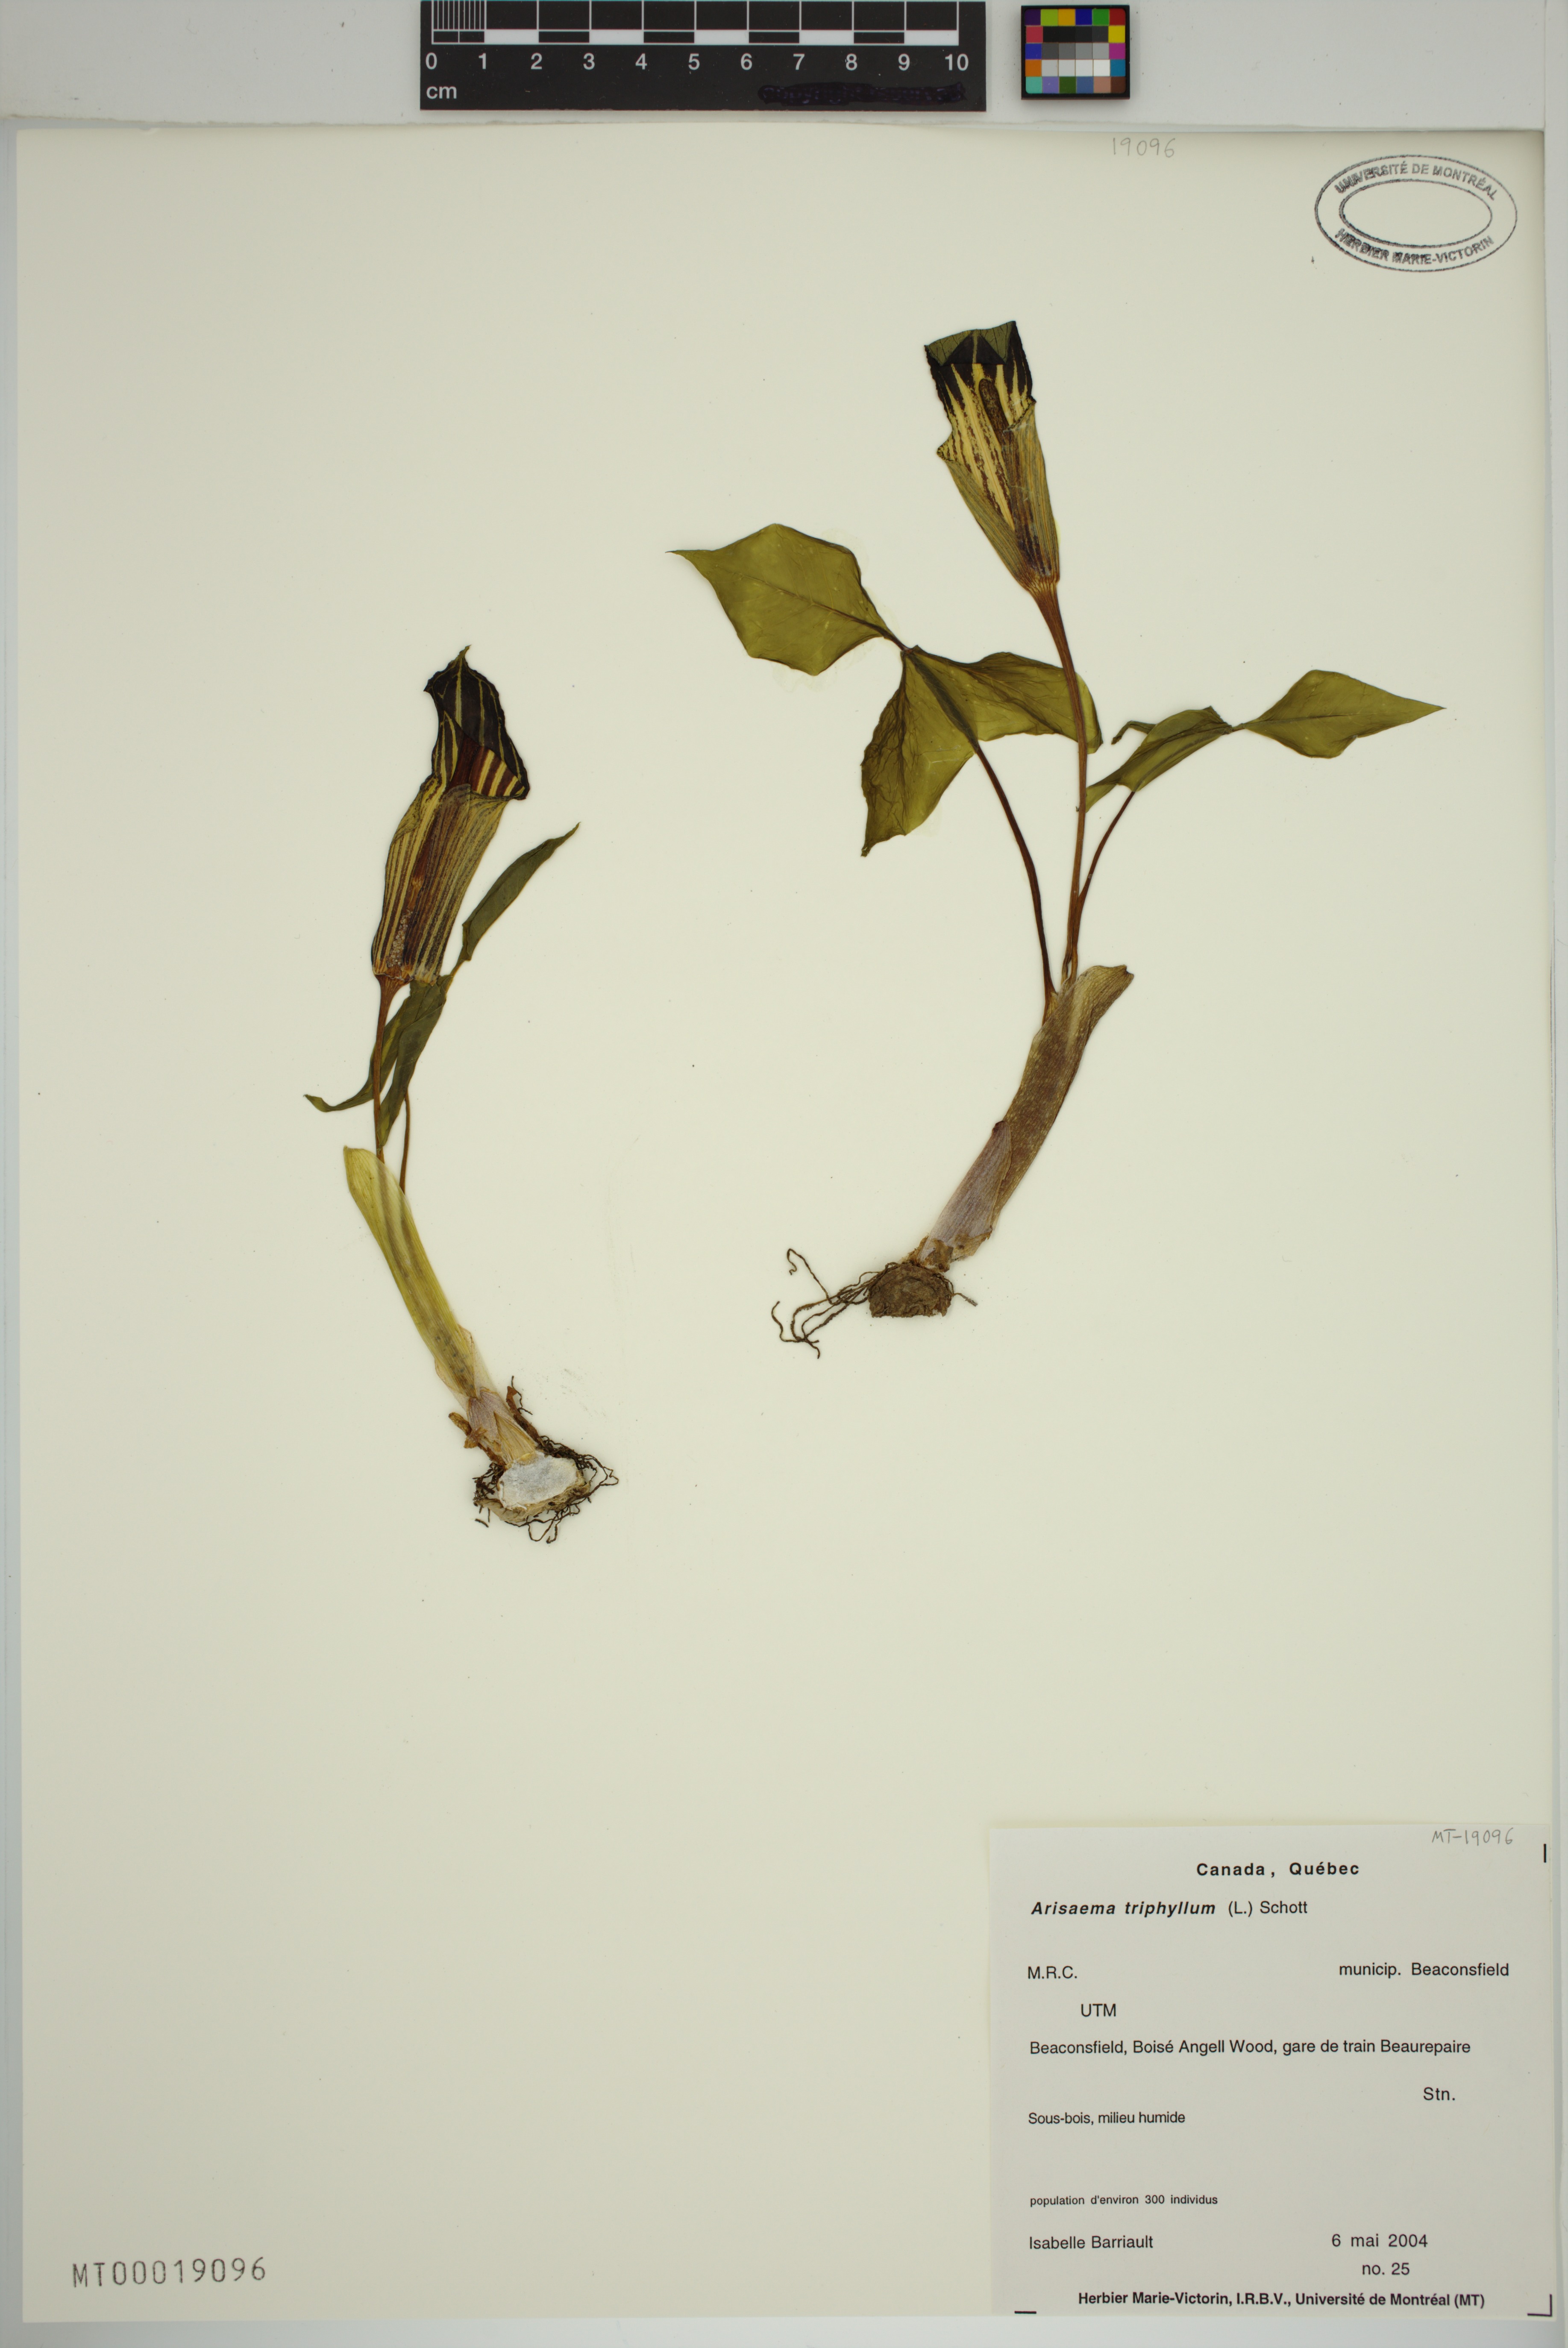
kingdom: Plantae
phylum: Tracheophyta
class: Liliopsida
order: Alismatales
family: Araceae
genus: Arisaema
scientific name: Arisaema triphyllum
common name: Jack-in-the-pulpit
